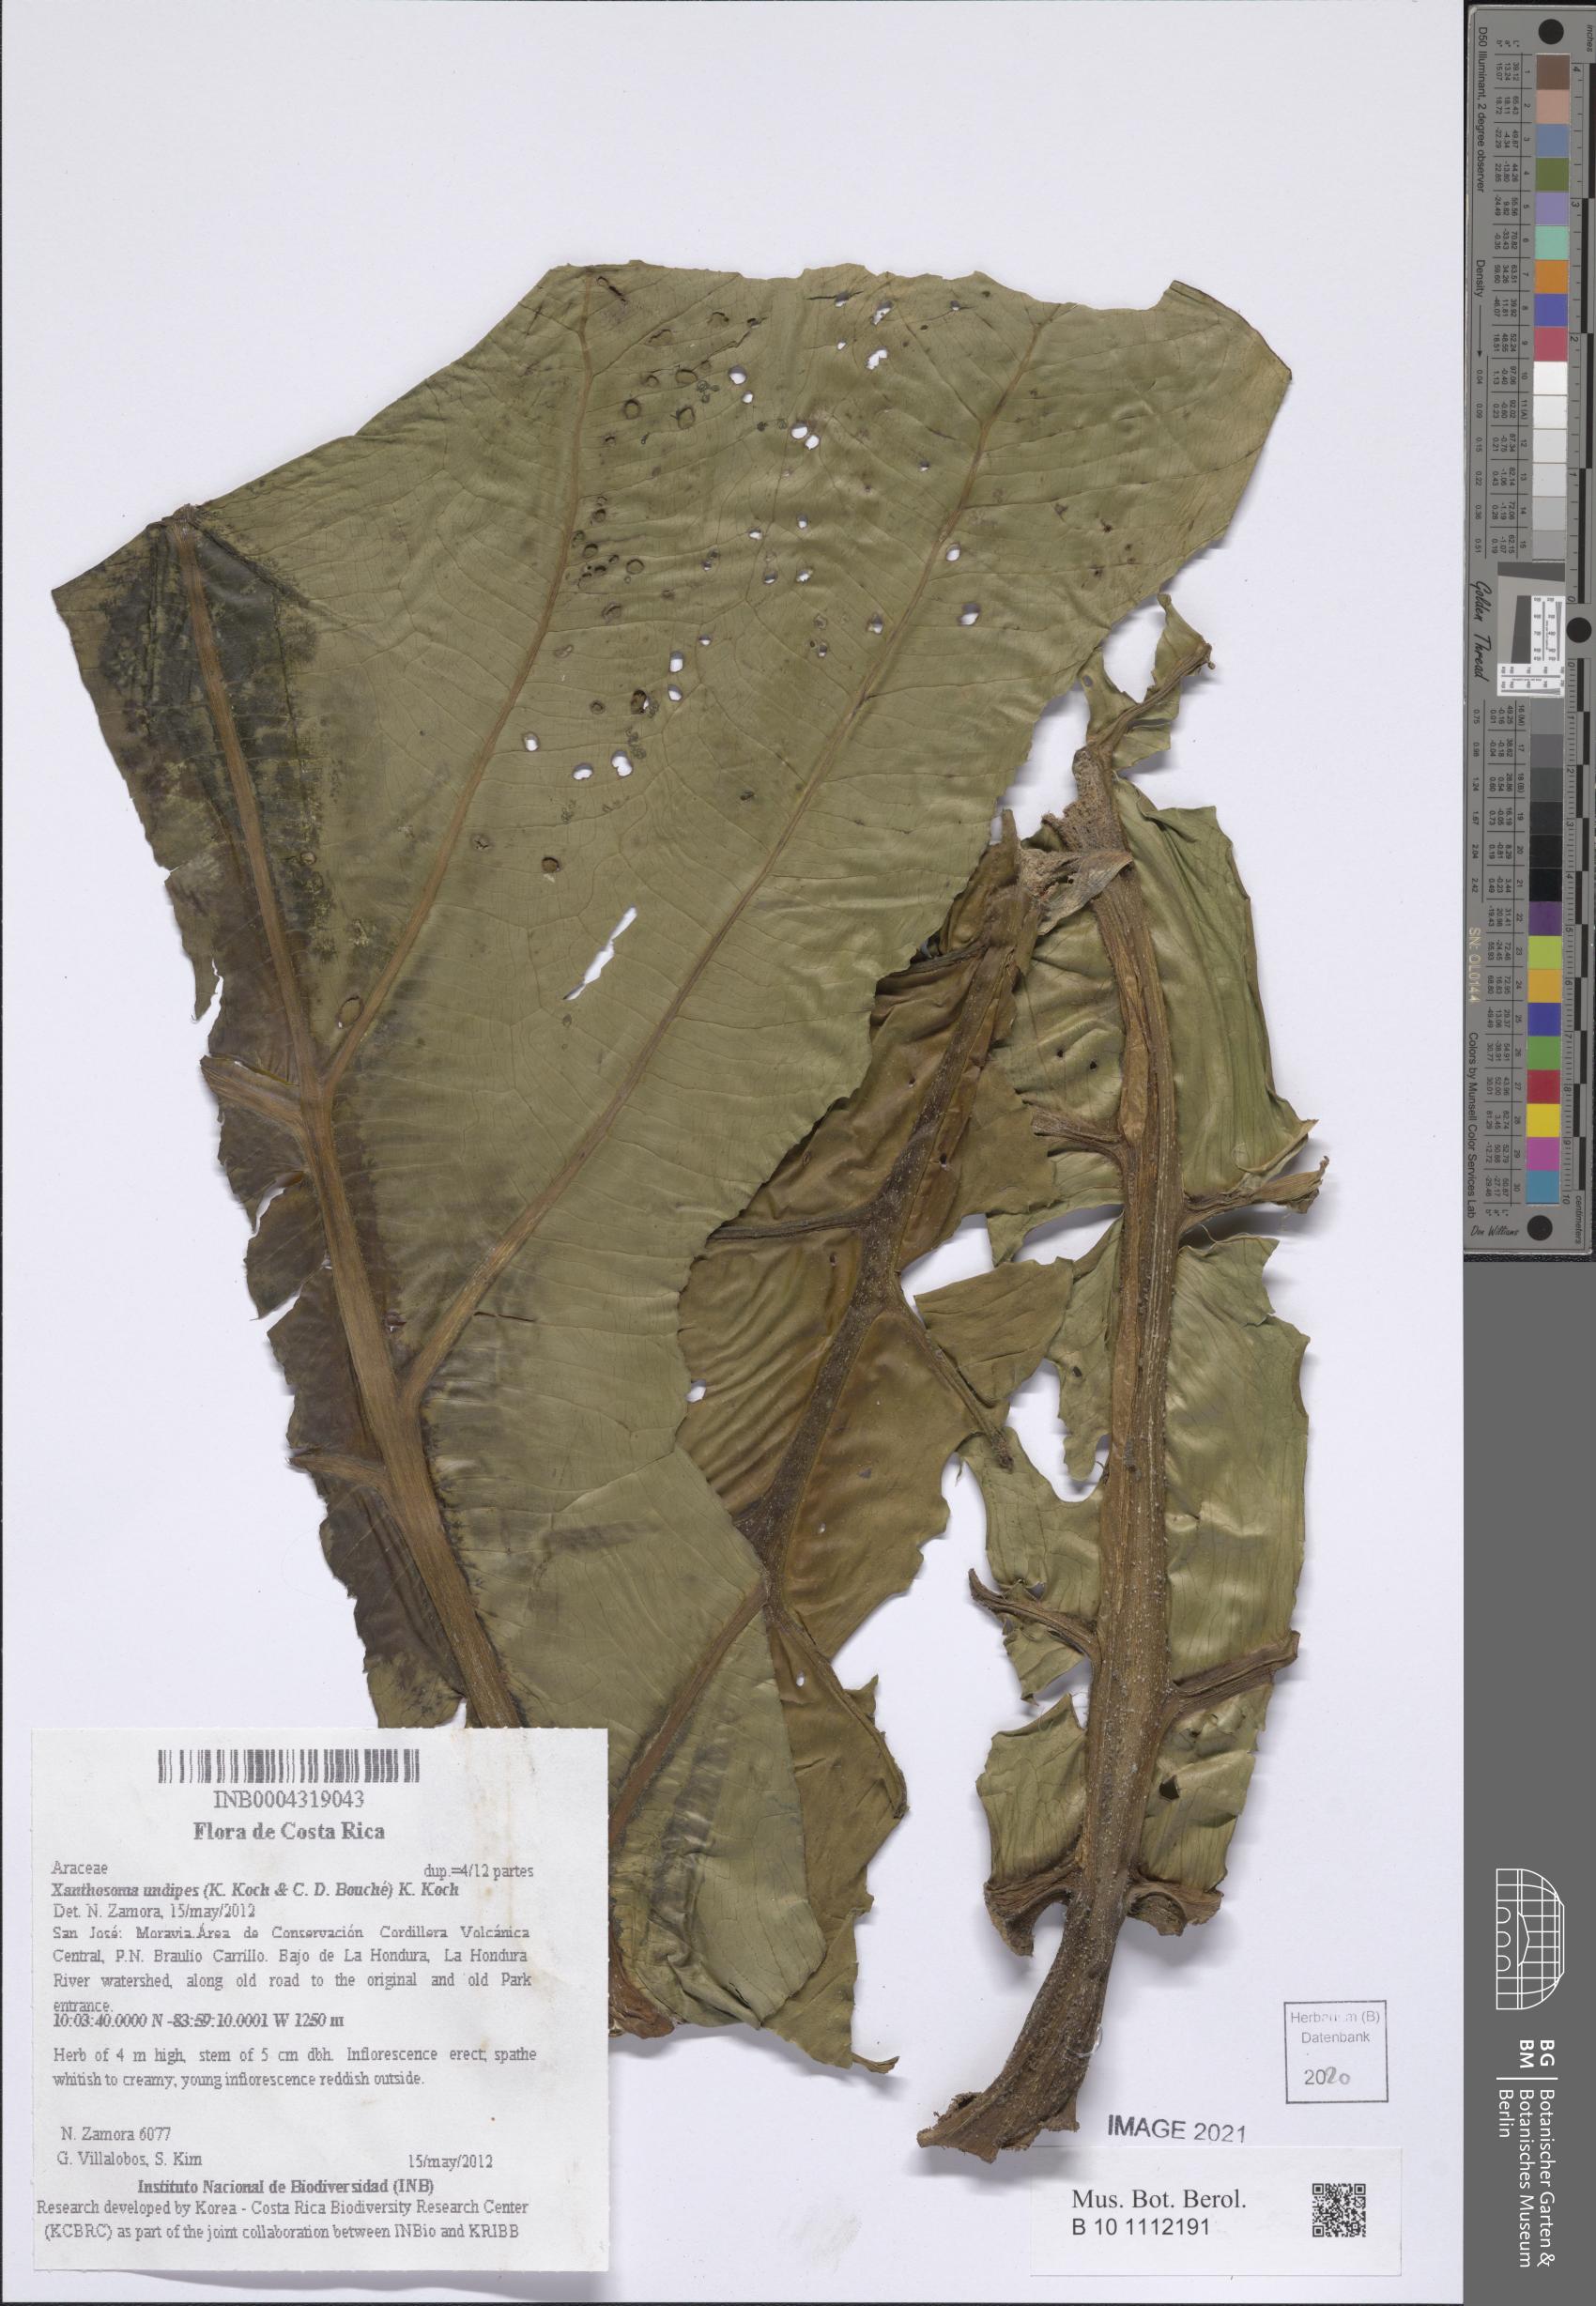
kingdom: Plantae
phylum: Tracheophyta
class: Liliopsida
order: Alismatales
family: Araceae
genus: Xanthosoma
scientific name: Xanthosoma undipes
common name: Tall elephant's ear
